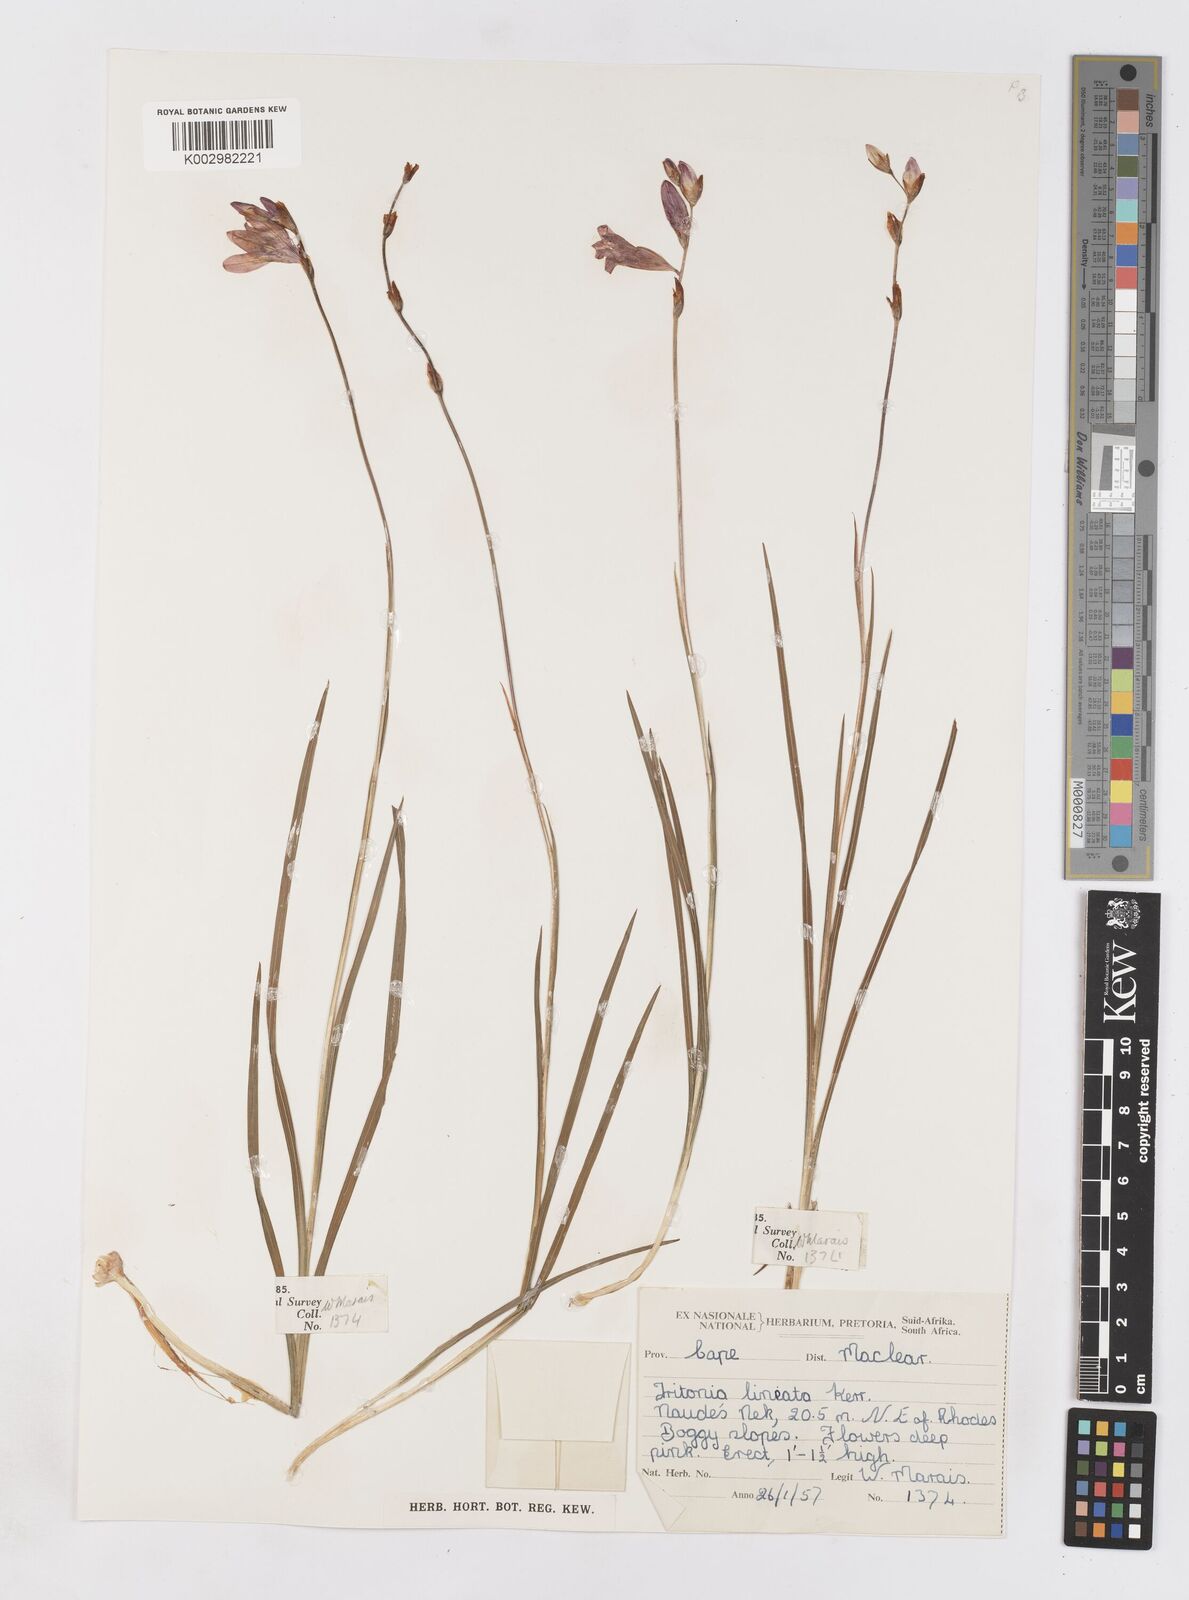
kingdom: Plantae
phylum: Tracheophyta
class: Liliopsida
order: Asparagales
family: Iridaceae
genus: Tritonia
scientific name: Tritonia gladiolaris
